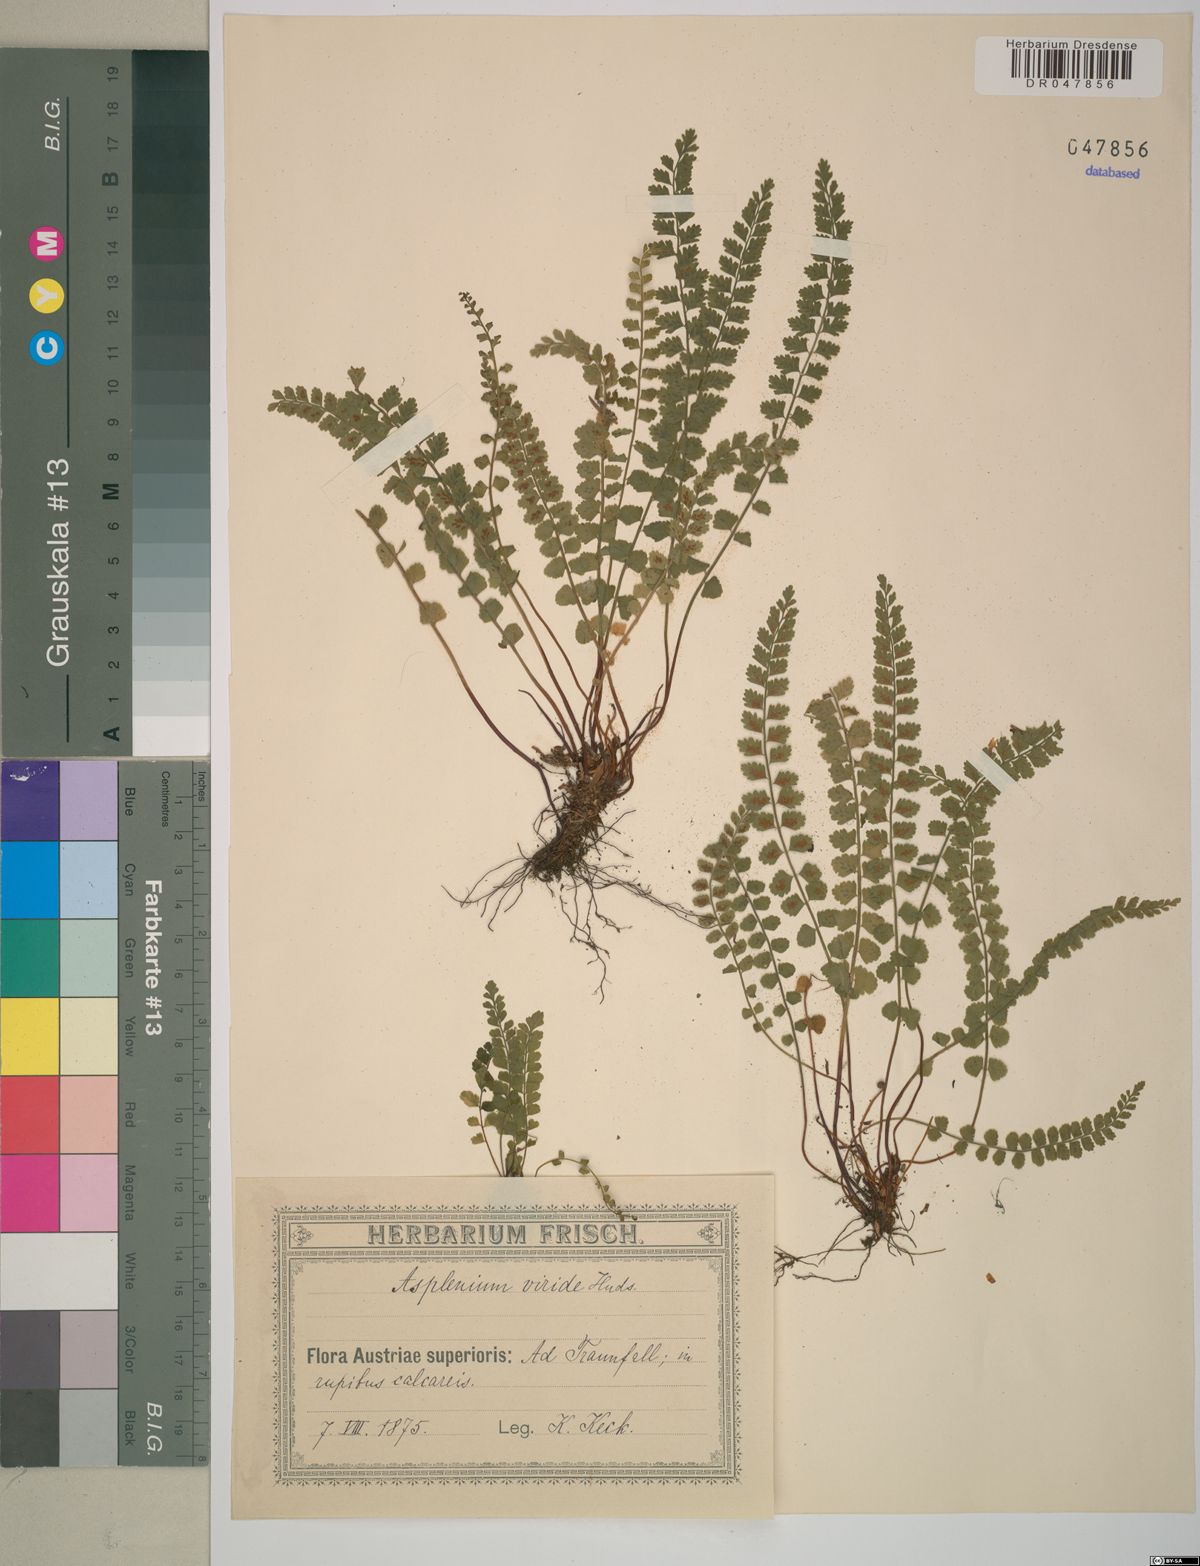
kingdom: Plantae
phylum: Tracheophyta
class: Polypodiopsida
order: Polypodiales
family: Aspleniaceae
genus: Asplenium
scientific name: Asplenium viride
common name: Green spleenwort
